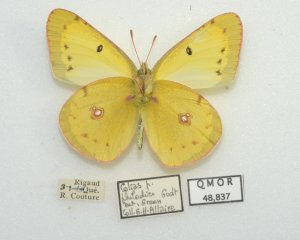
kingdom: Animalia
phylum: Arthropoda
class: Insecta
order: Lepidoptera
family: Pieridae
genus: Colias
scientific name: Colias philodice
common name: Clouded Sulphur
